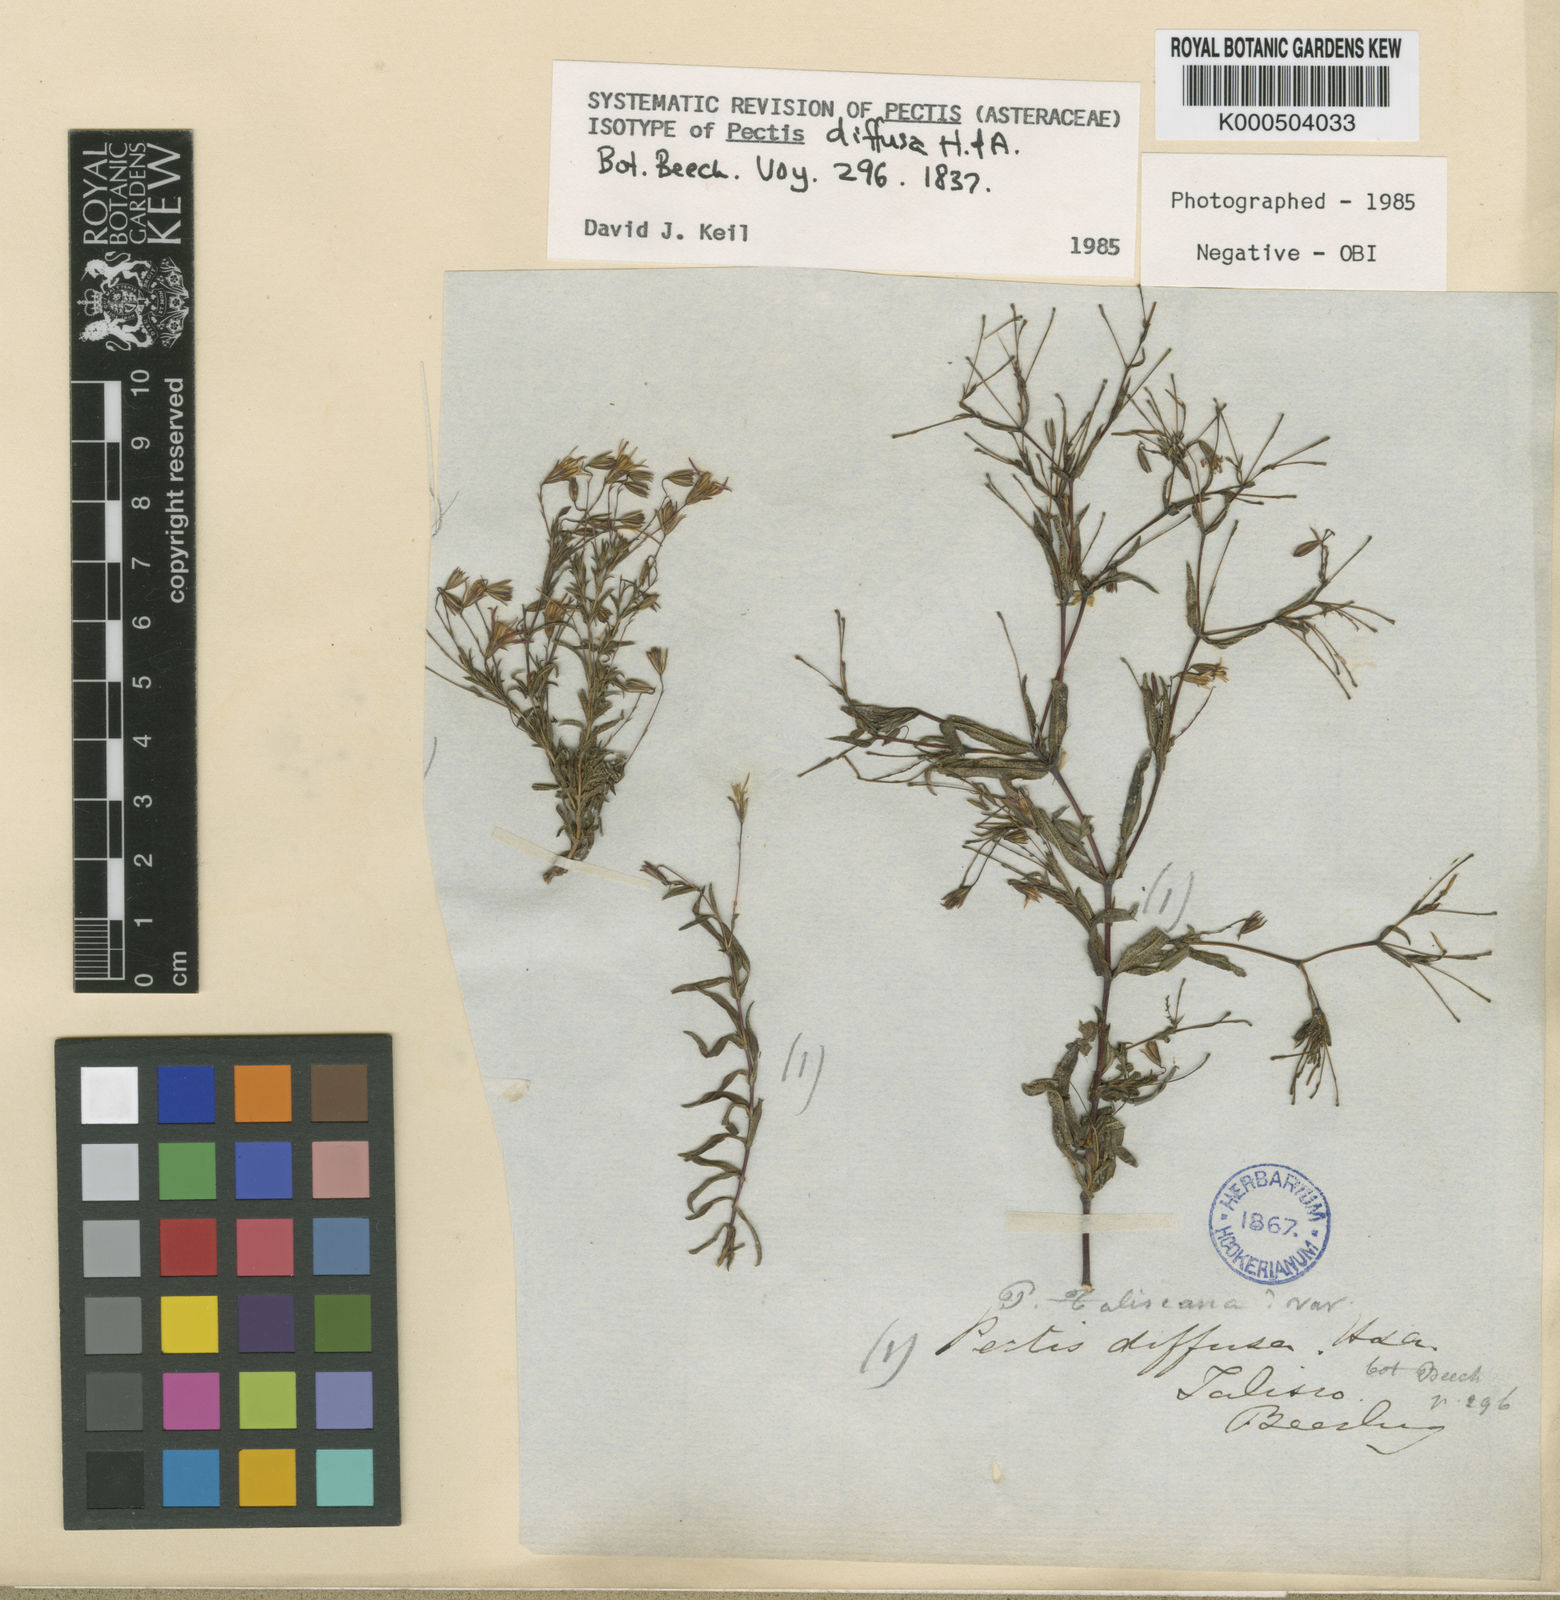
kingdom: Plantae
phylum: Tracheophyta
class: Magnoliopsida
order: Asterales
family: Asteraceae
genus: Pectis
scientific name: Pectis diffusa
